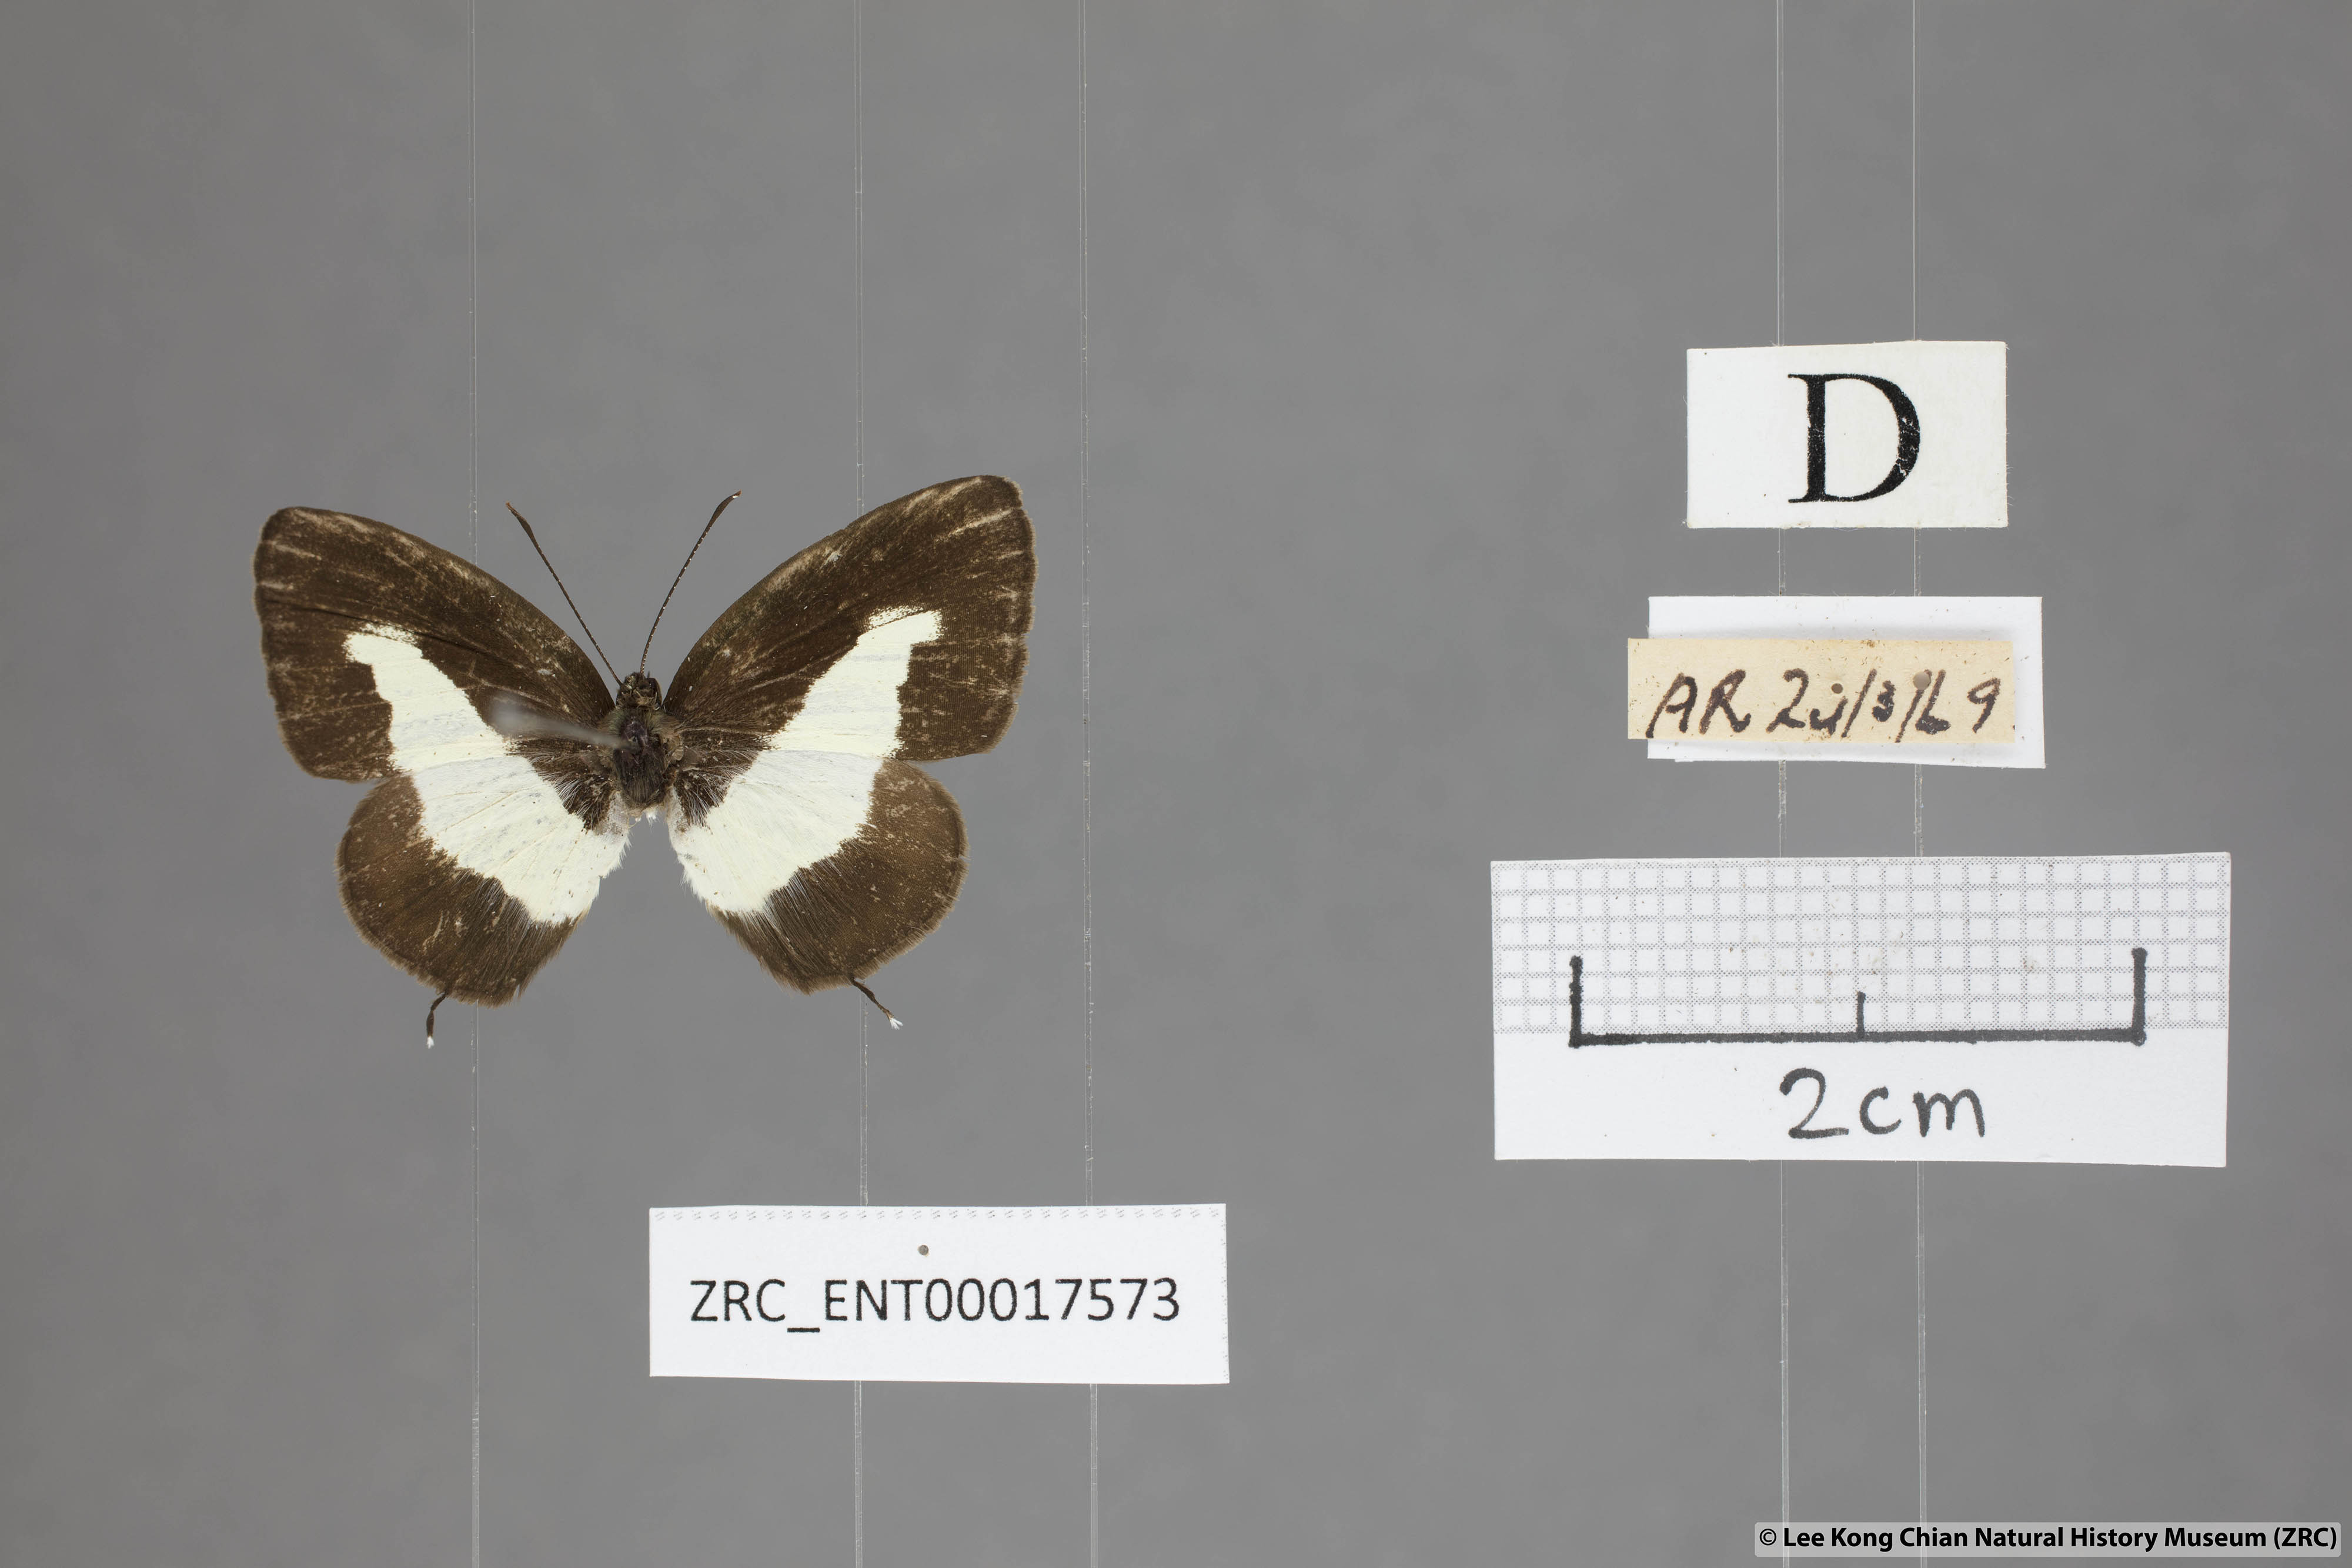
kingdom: Animalia
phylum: Arthropoda
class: Insecta
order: Lepidoptera
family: Lycaenidae
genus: Caleta
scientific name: Caleta elna
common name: Elbowed pierrot
